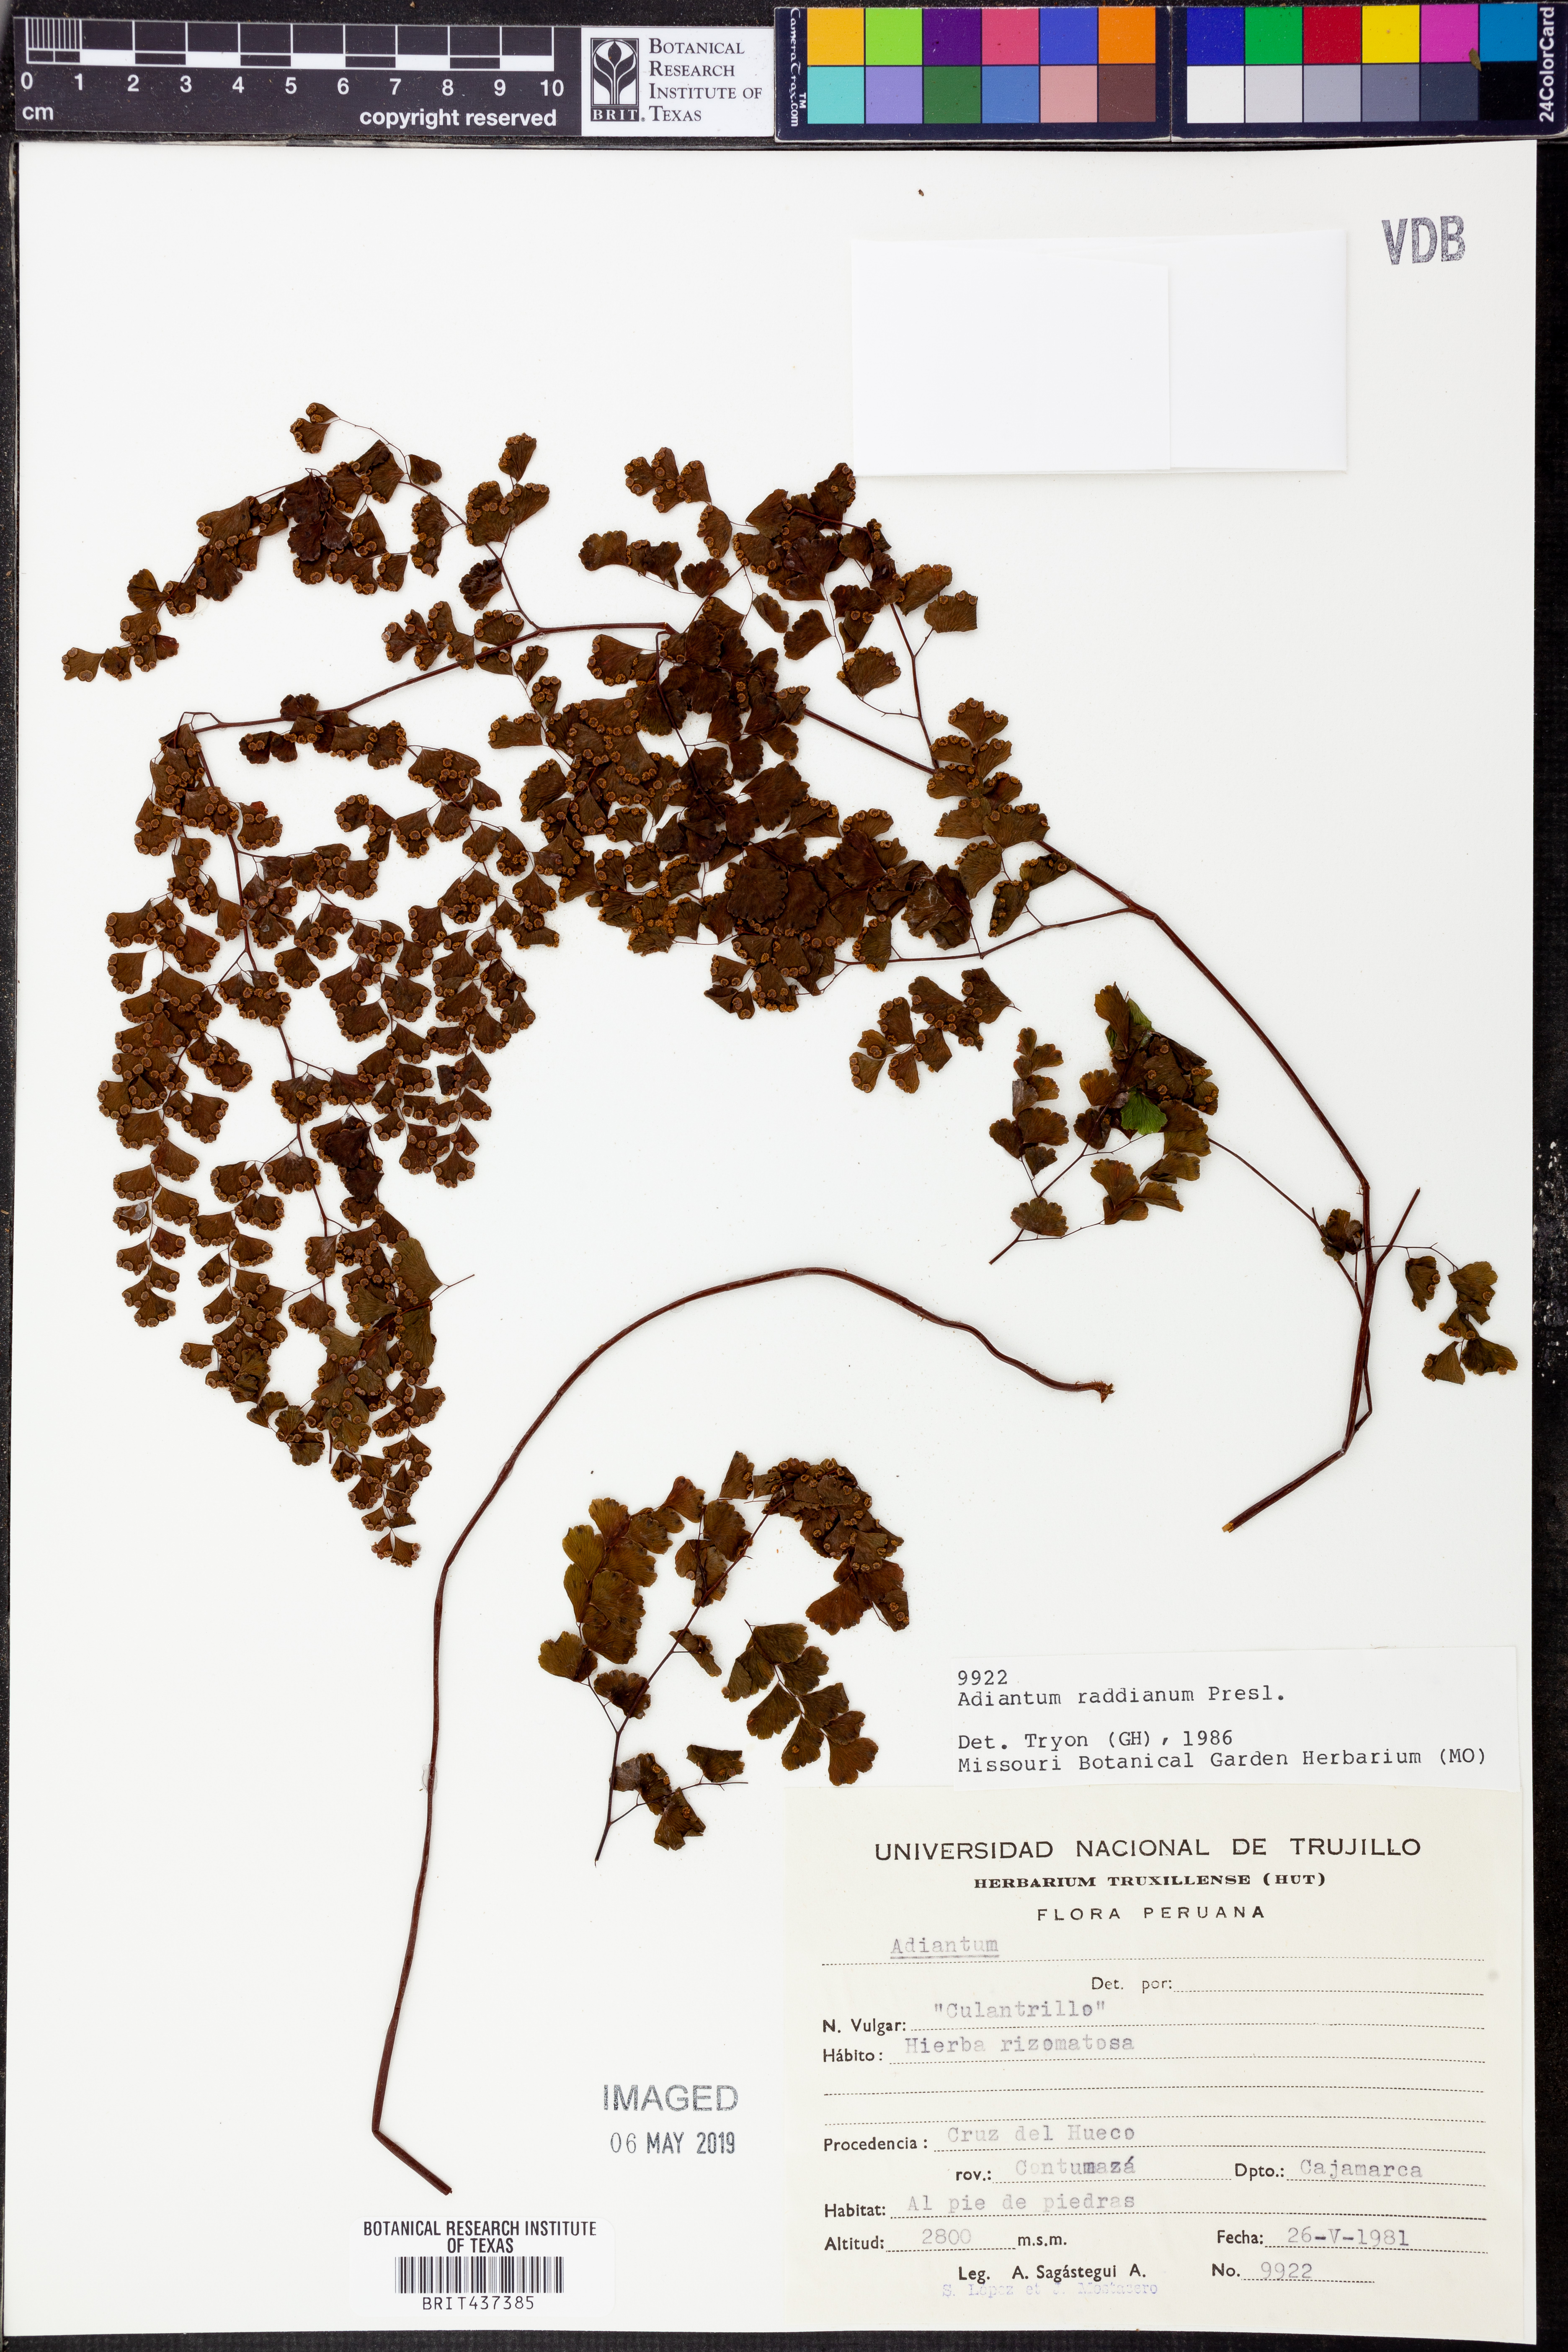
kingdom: Plantae
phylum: Tracheophyta
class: Polypodiopsida
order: Polypodiales
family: Pteridaceae
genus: Adiantum
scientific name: Adiantum raddianum
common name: Delta maidenhair fern
